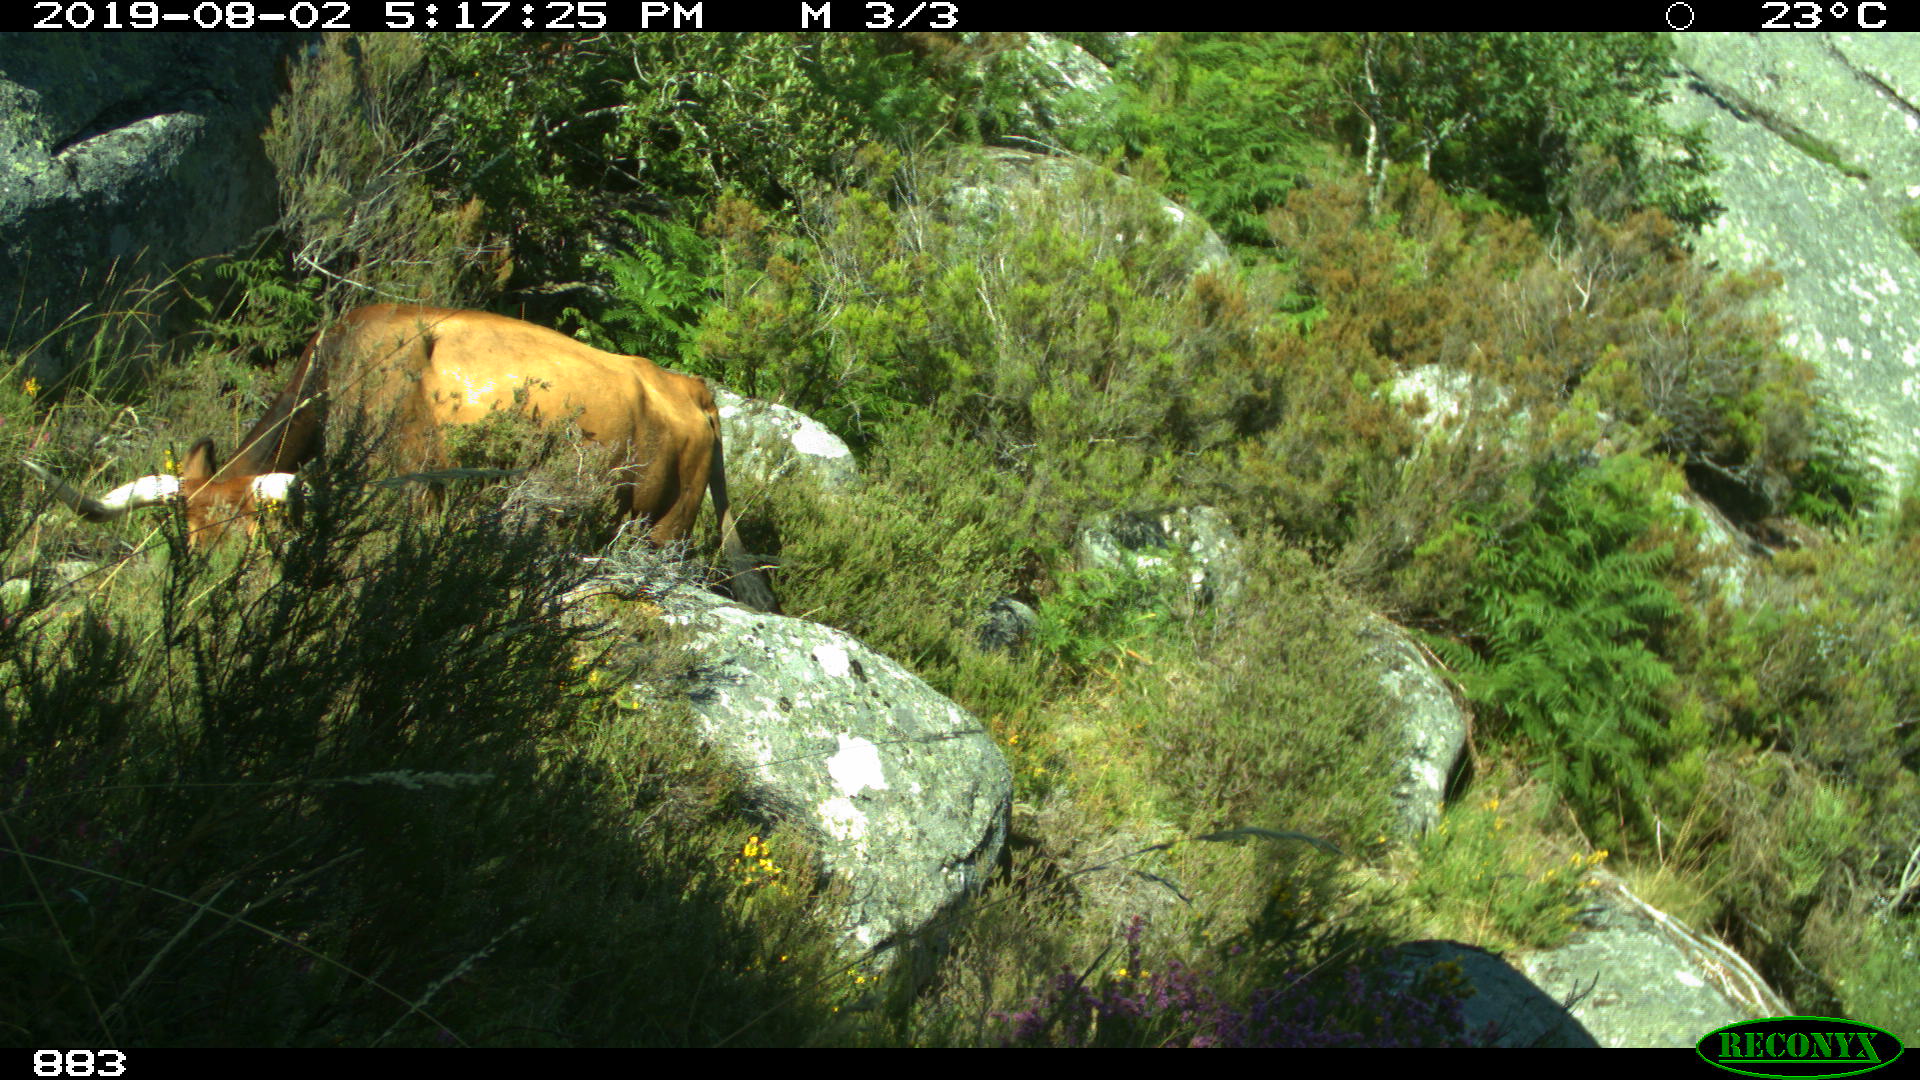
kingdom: Animalia
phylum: Chordata
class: Mammalia
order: Artiodactyla
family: Bovidae
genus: Bos
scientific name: Bos taurus
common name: Domesticated cattle
